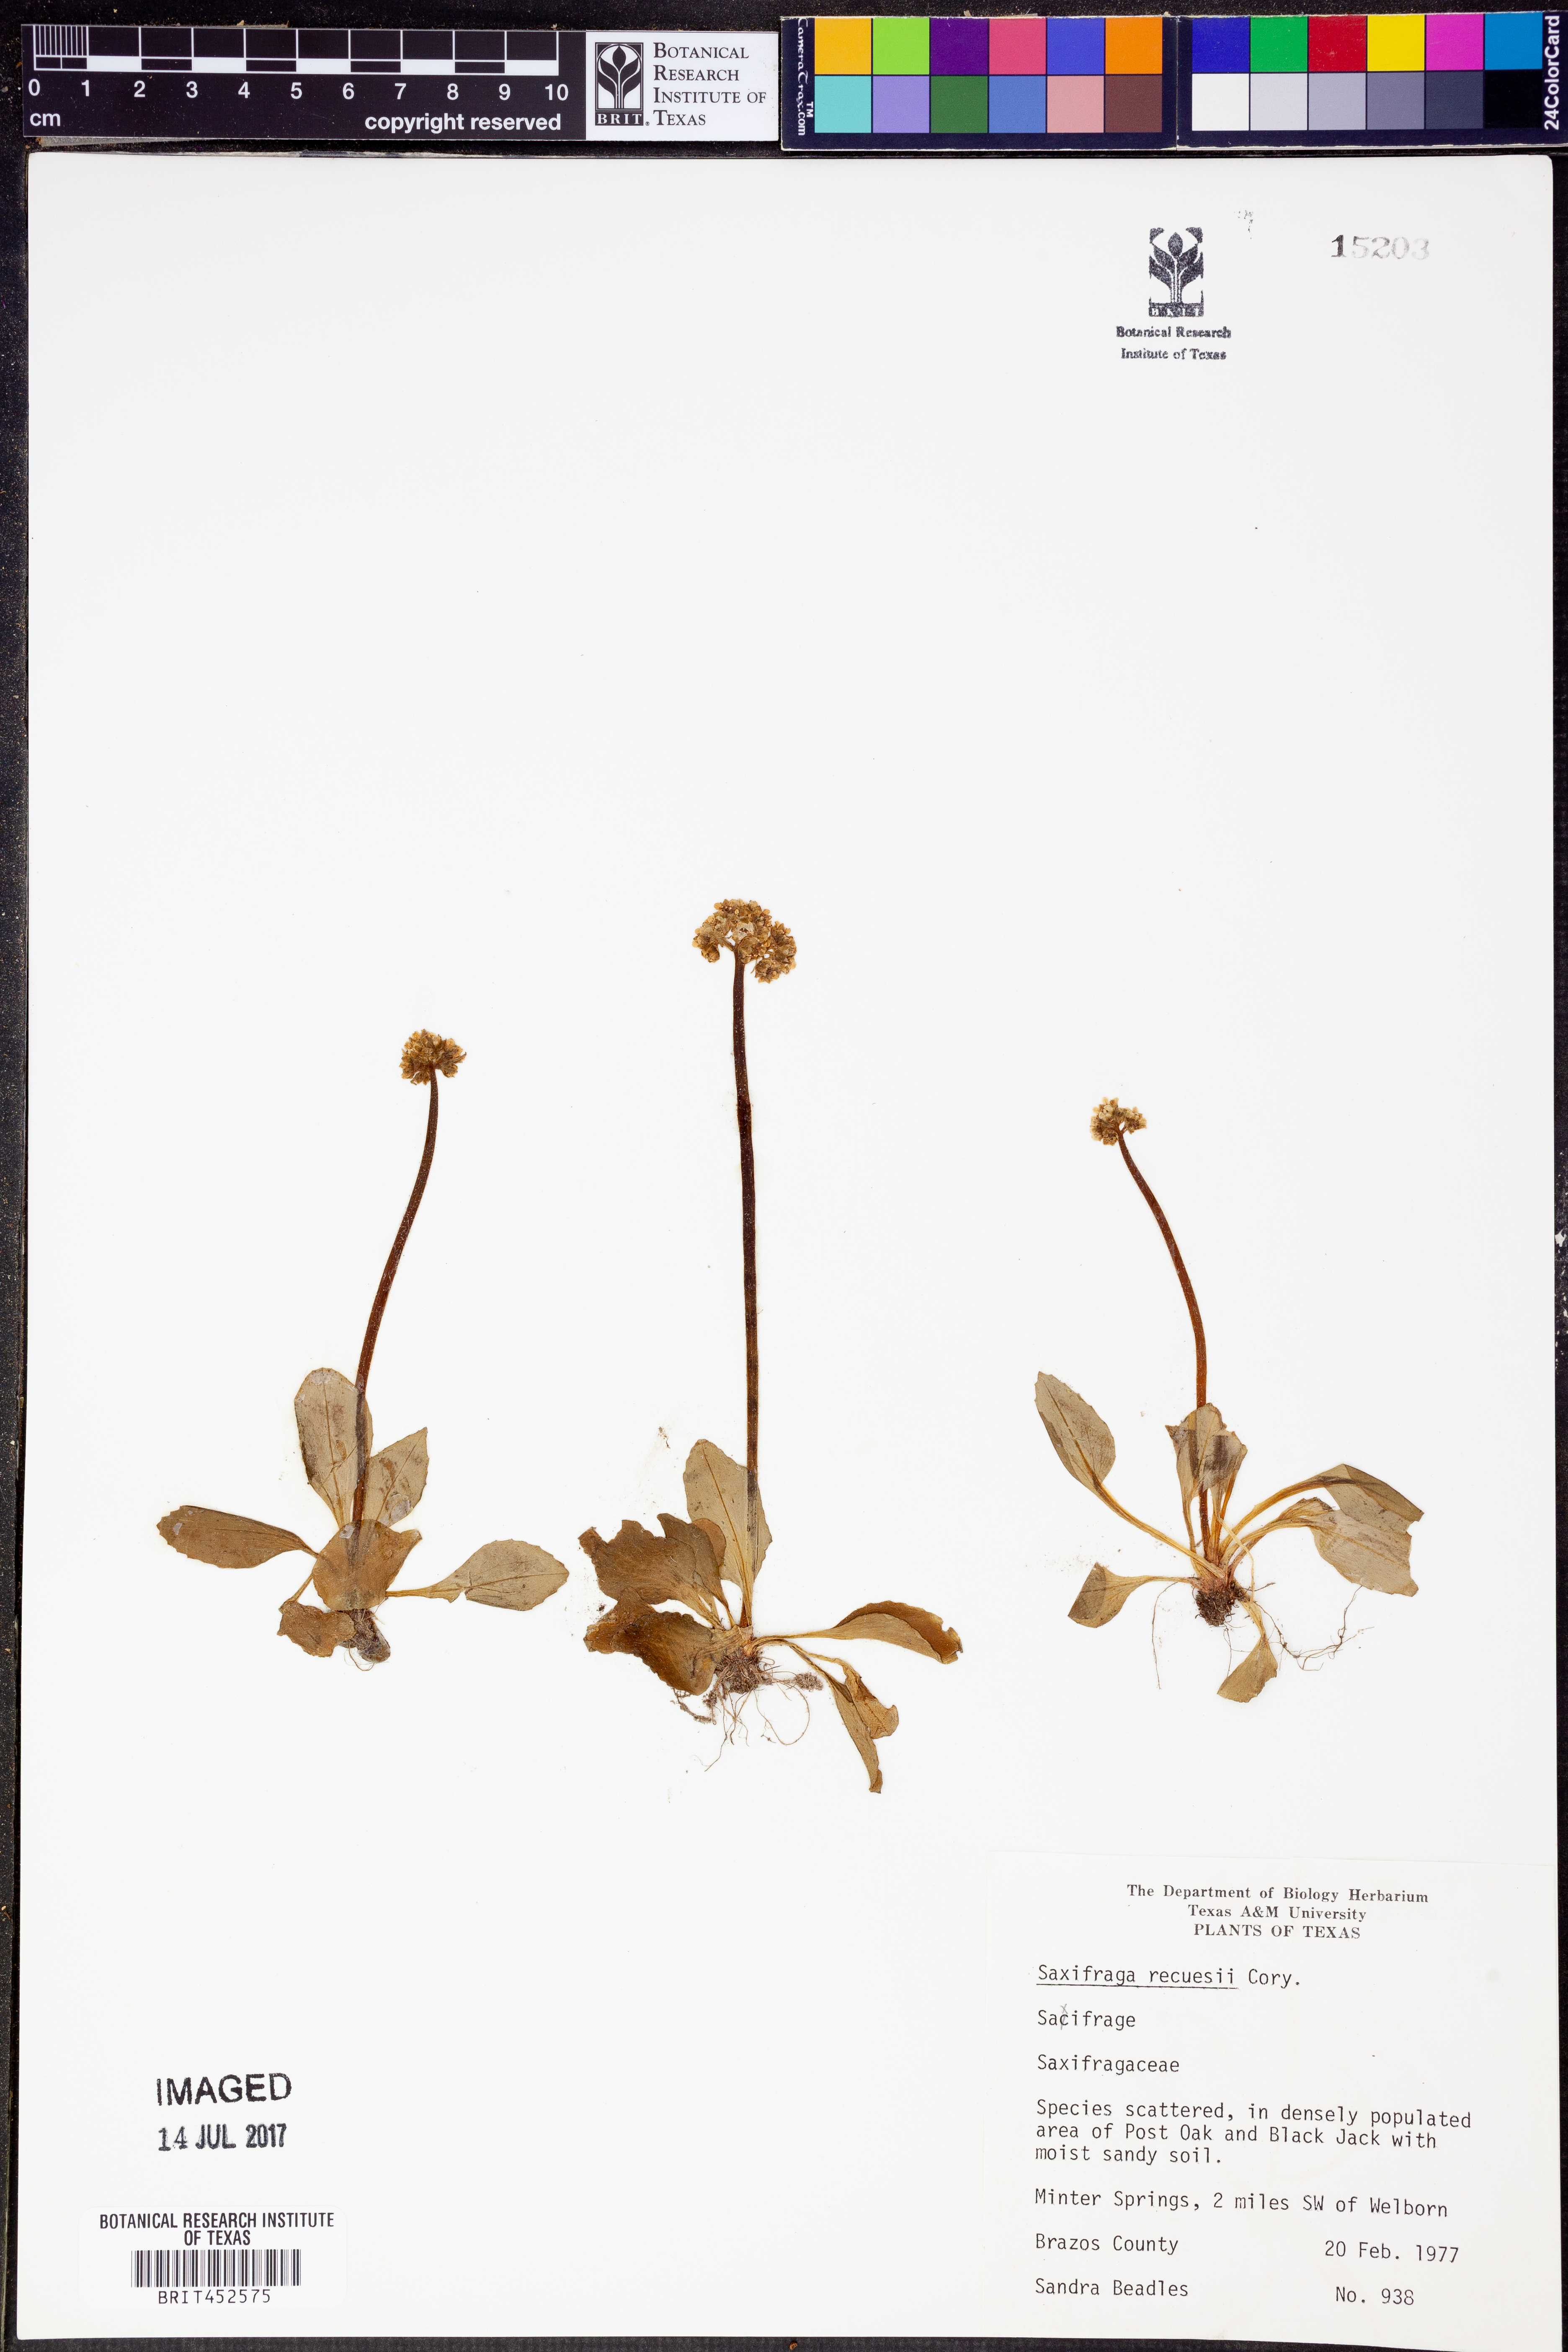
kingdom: Plantae
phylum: Tracheophyta
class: Magnoliopsida
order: Saxifragales
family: Saxifragaceae
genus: Micranthes
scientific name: Micranthes texana
